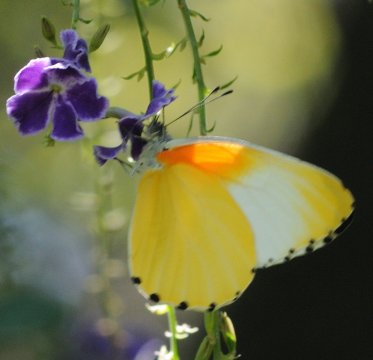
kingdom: Animalia
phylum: Arthropoda
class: Insecta
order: Lepidoptera
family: Pieridae
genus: Mylothris
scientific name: Mylothris agathina
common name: Eastern Dotted Border
